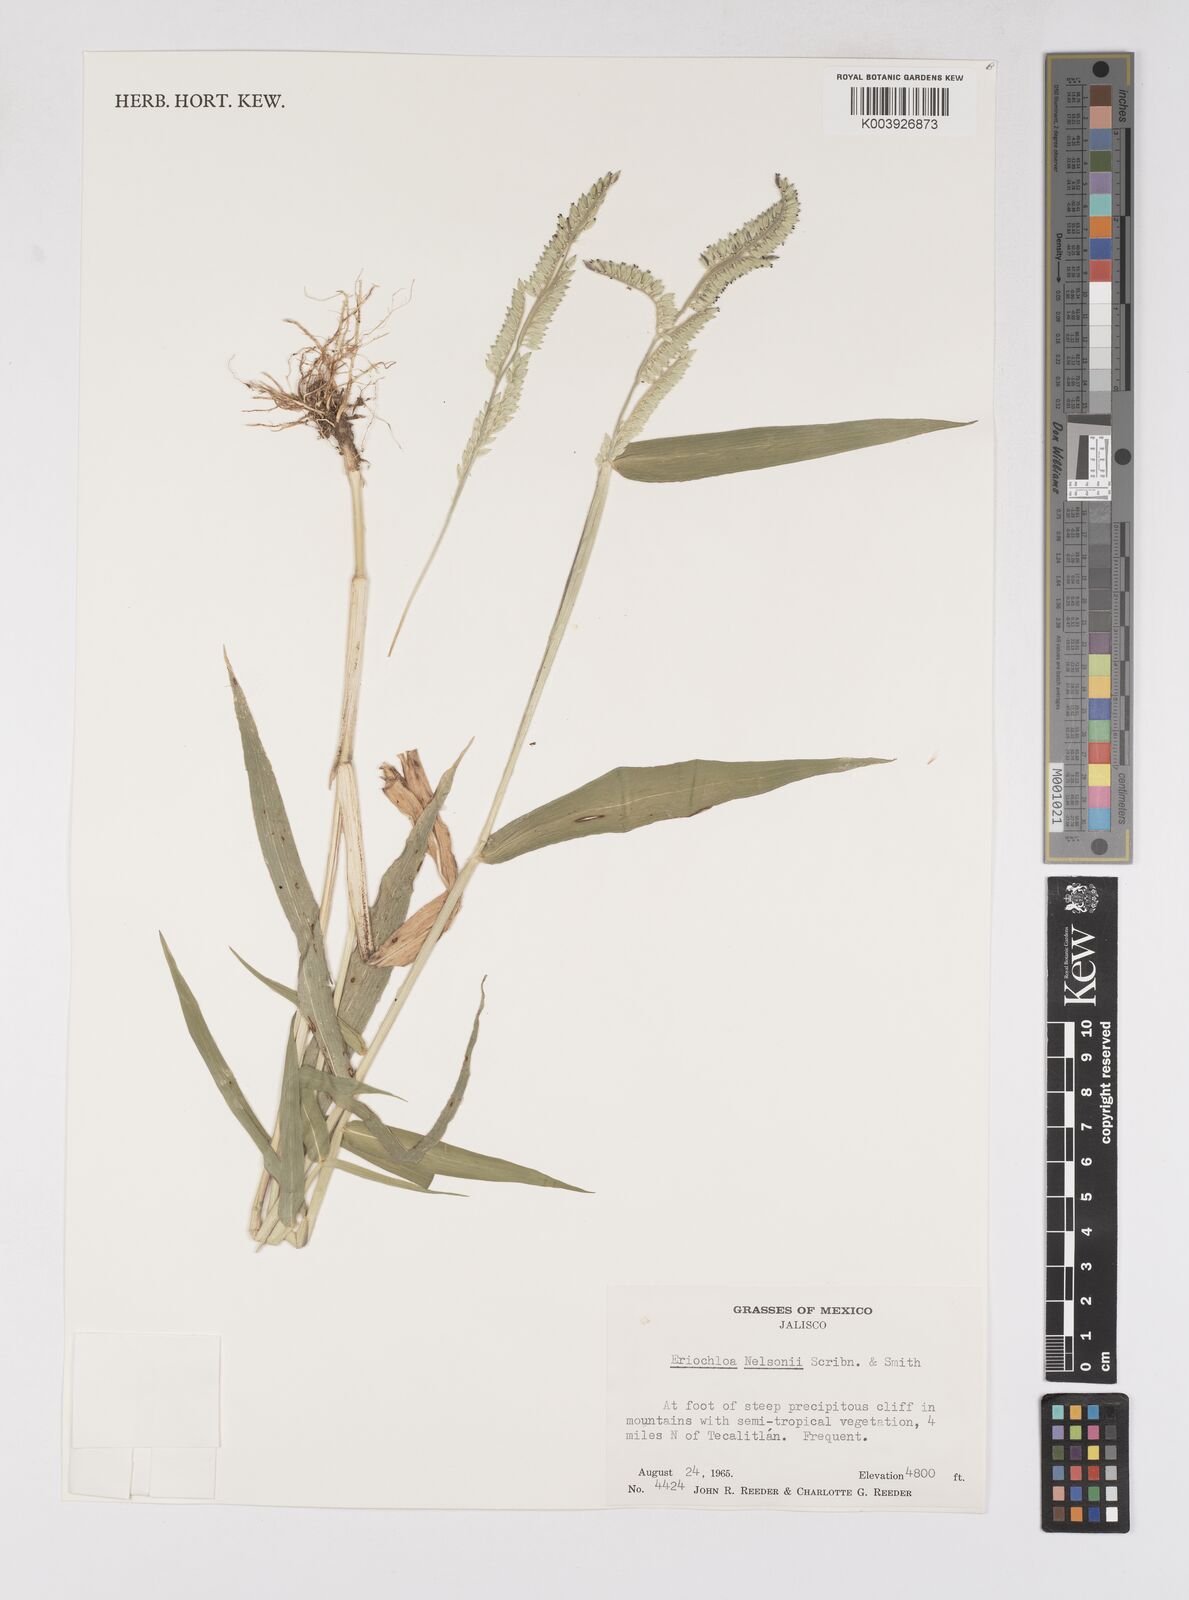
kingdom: Plantae
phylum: Tracheophyta
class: Liliopsida
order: Poales
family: Poaceae
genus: Eriochloa
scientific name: Eriochloa nelsonii
